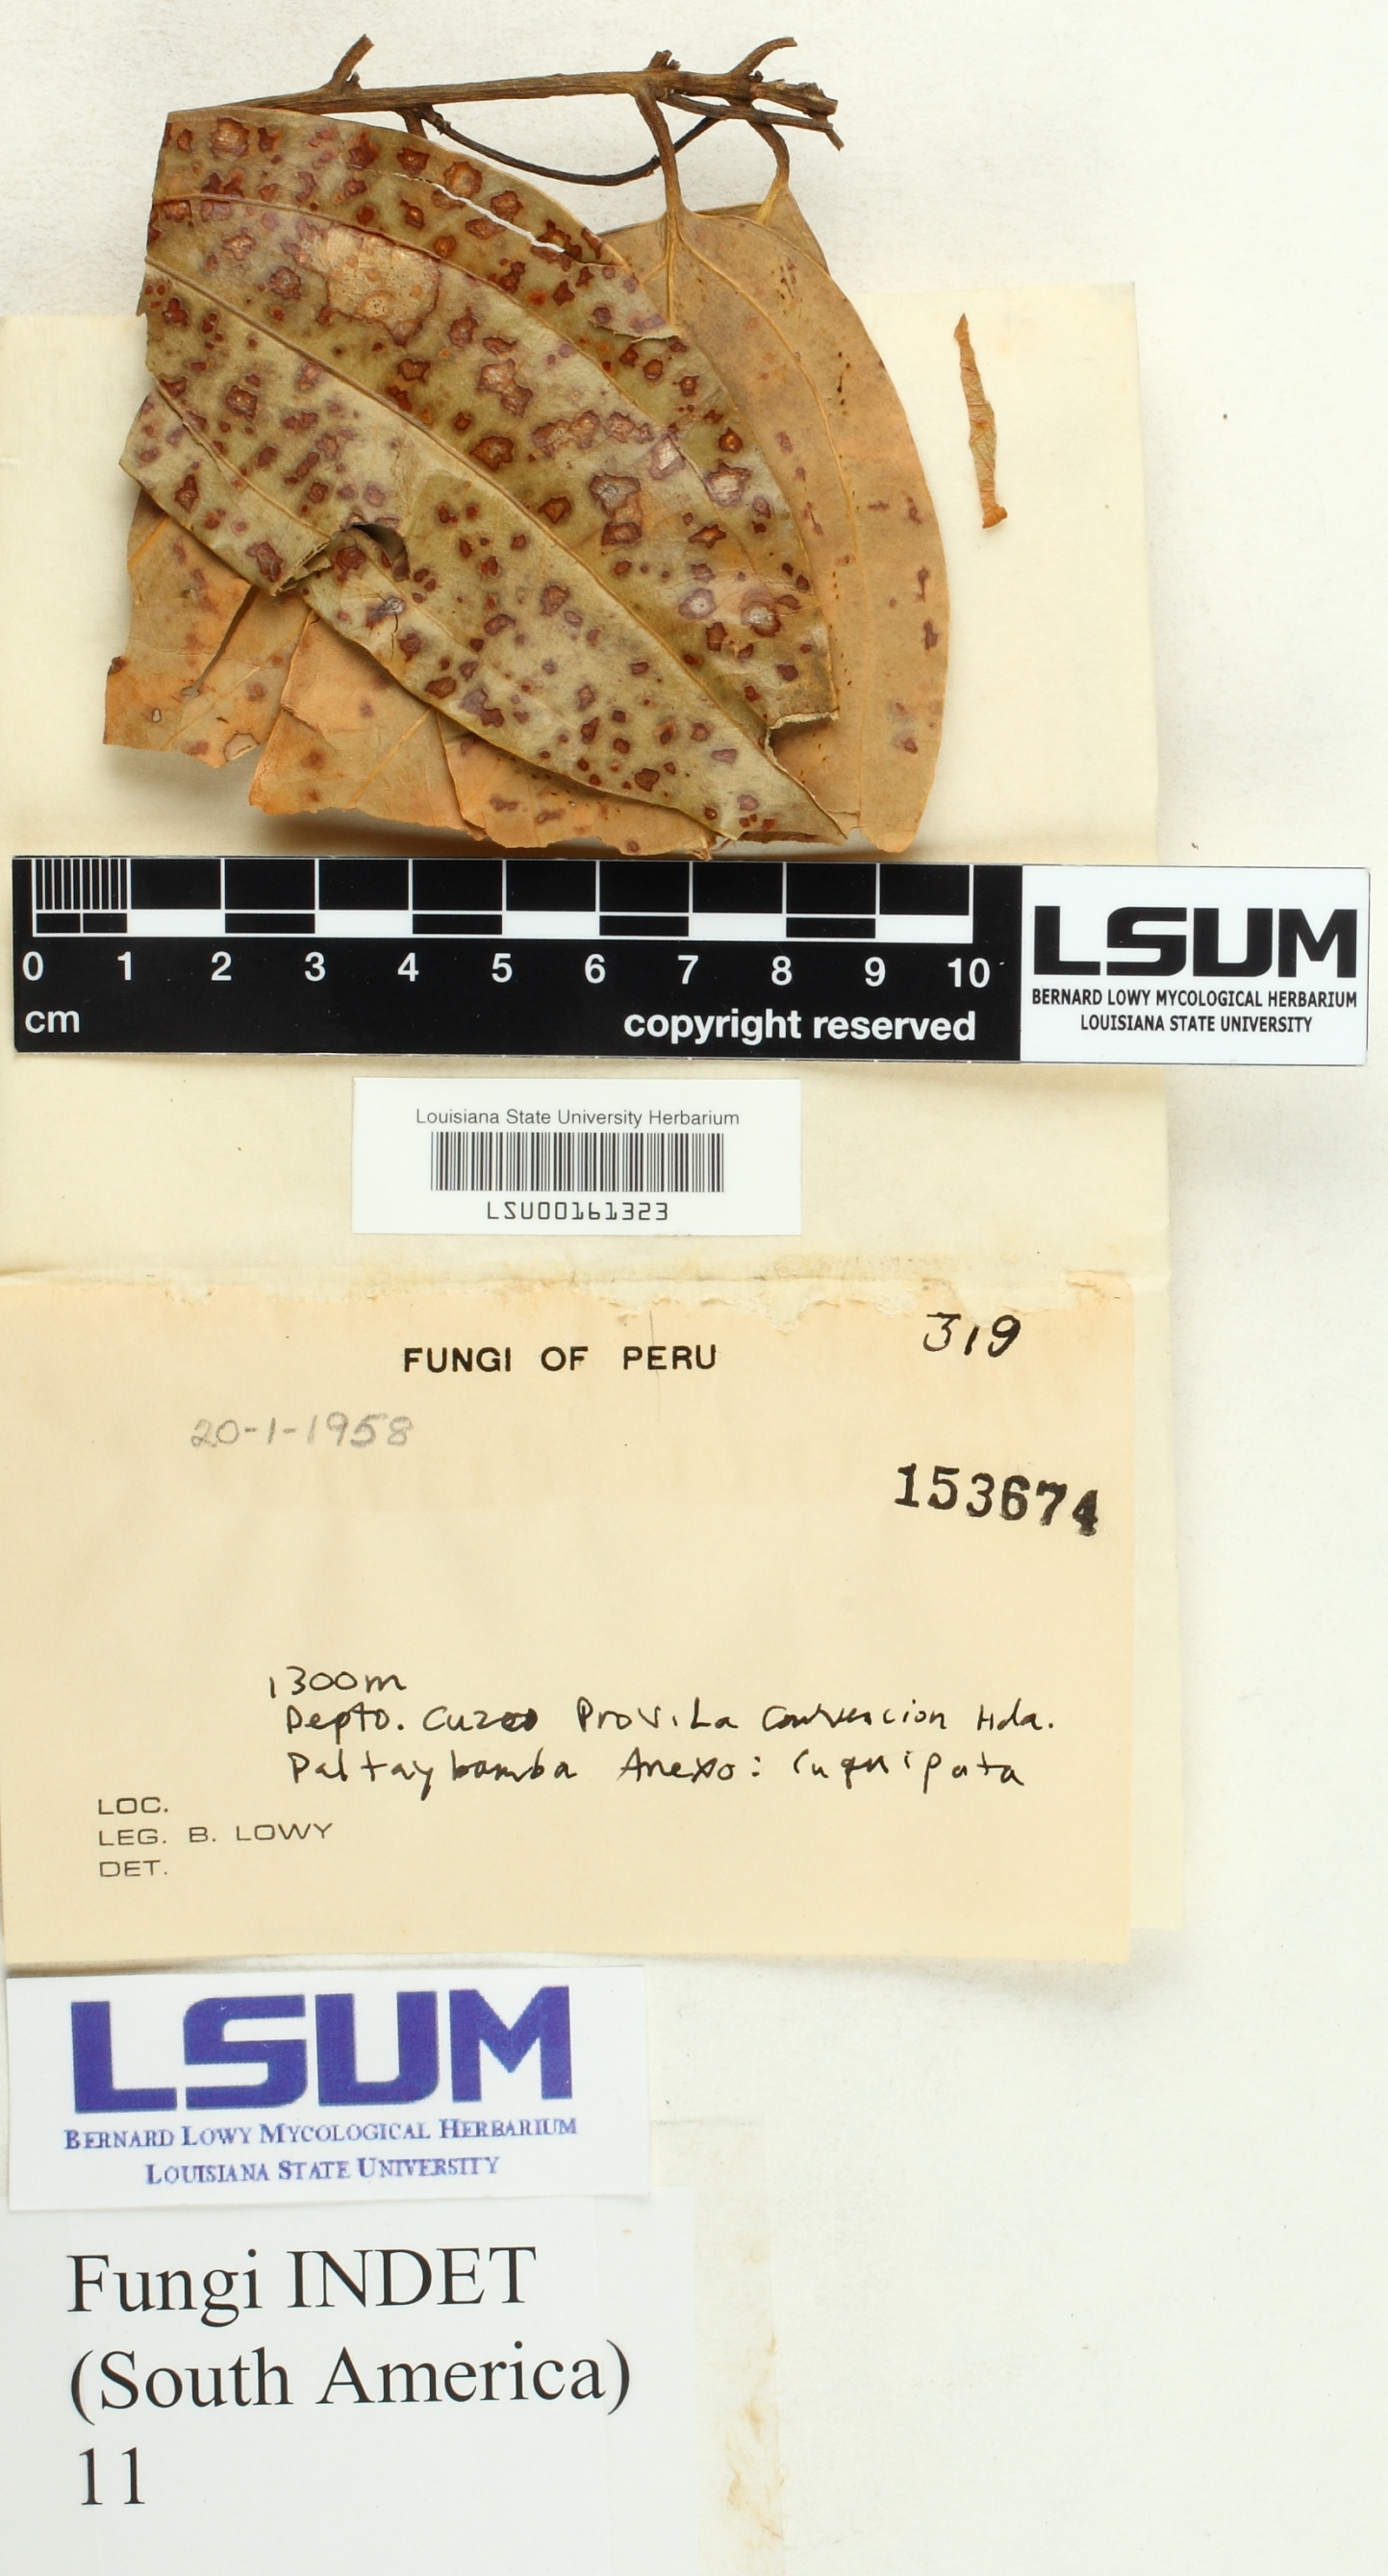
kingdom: Fungi
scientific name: Fungi
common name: Fungi
